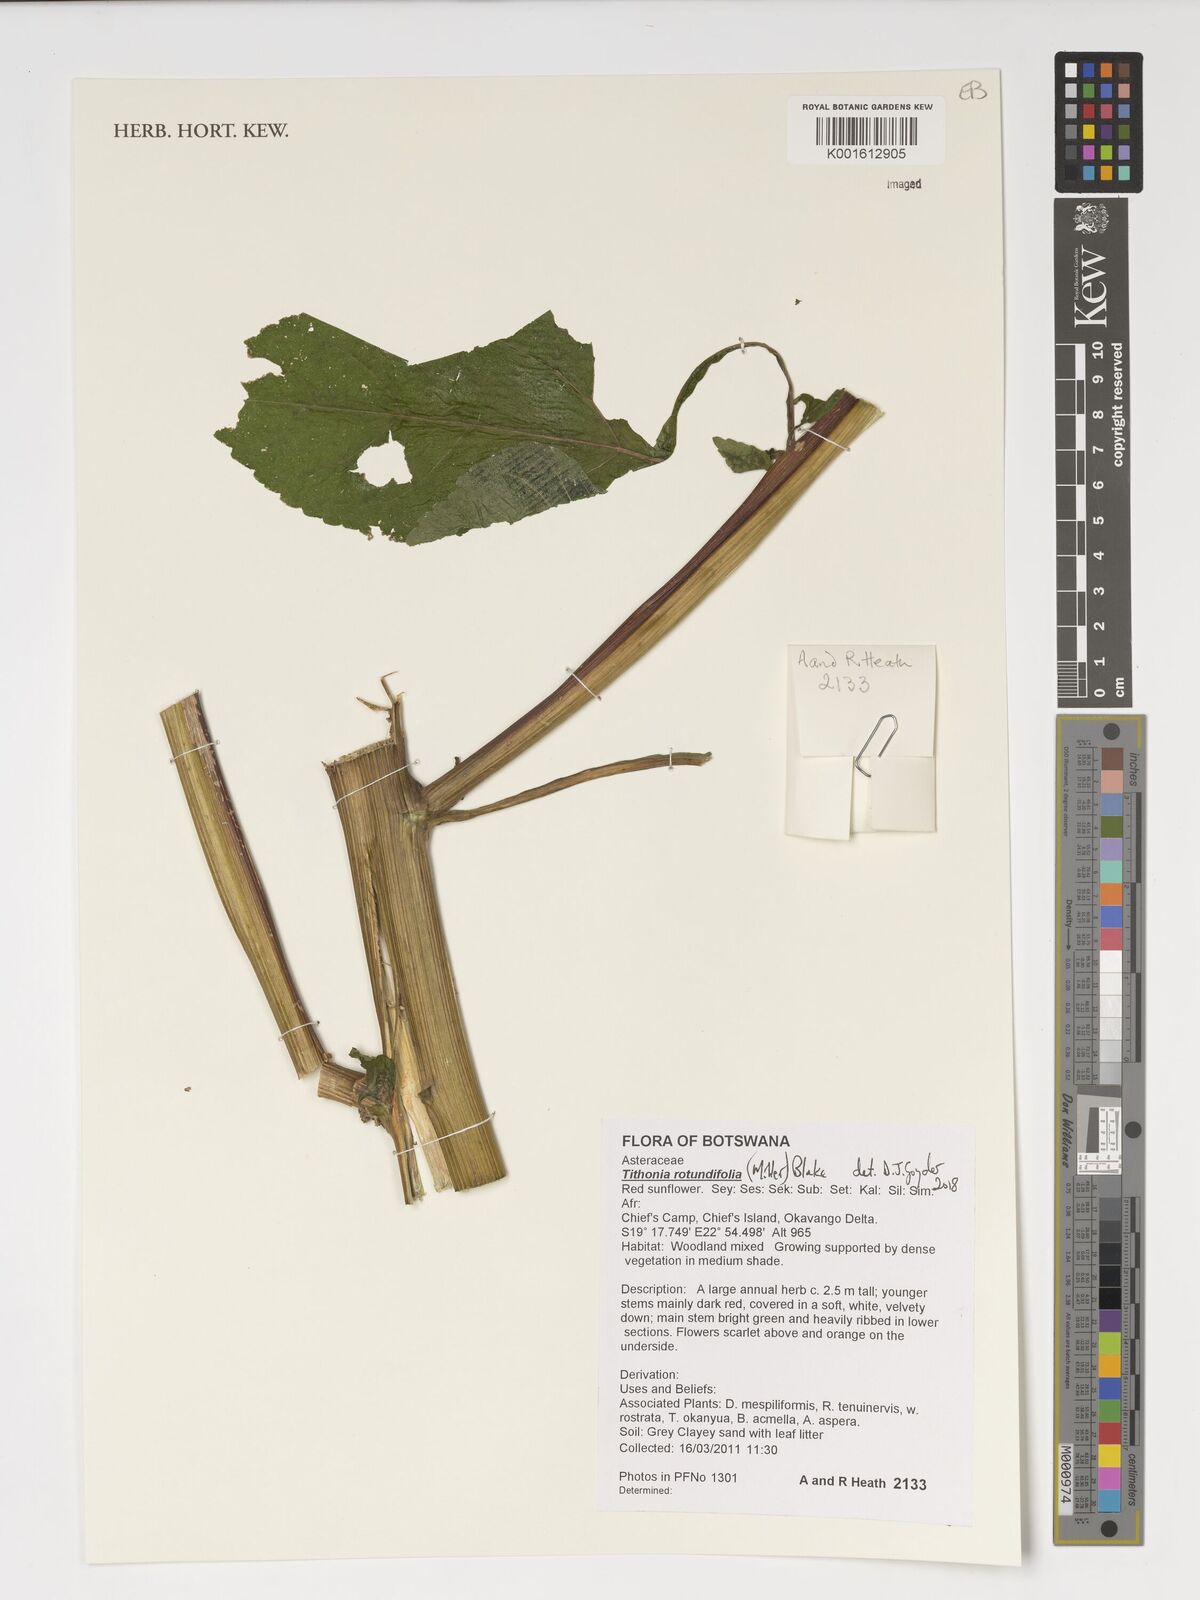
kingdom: Plantae
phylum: Tracheophyta
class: Magnoliopsida
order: Asterales
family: Asteraceae
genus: Tithonia
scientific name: Tithonia rotundifolia
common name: Sunflower
